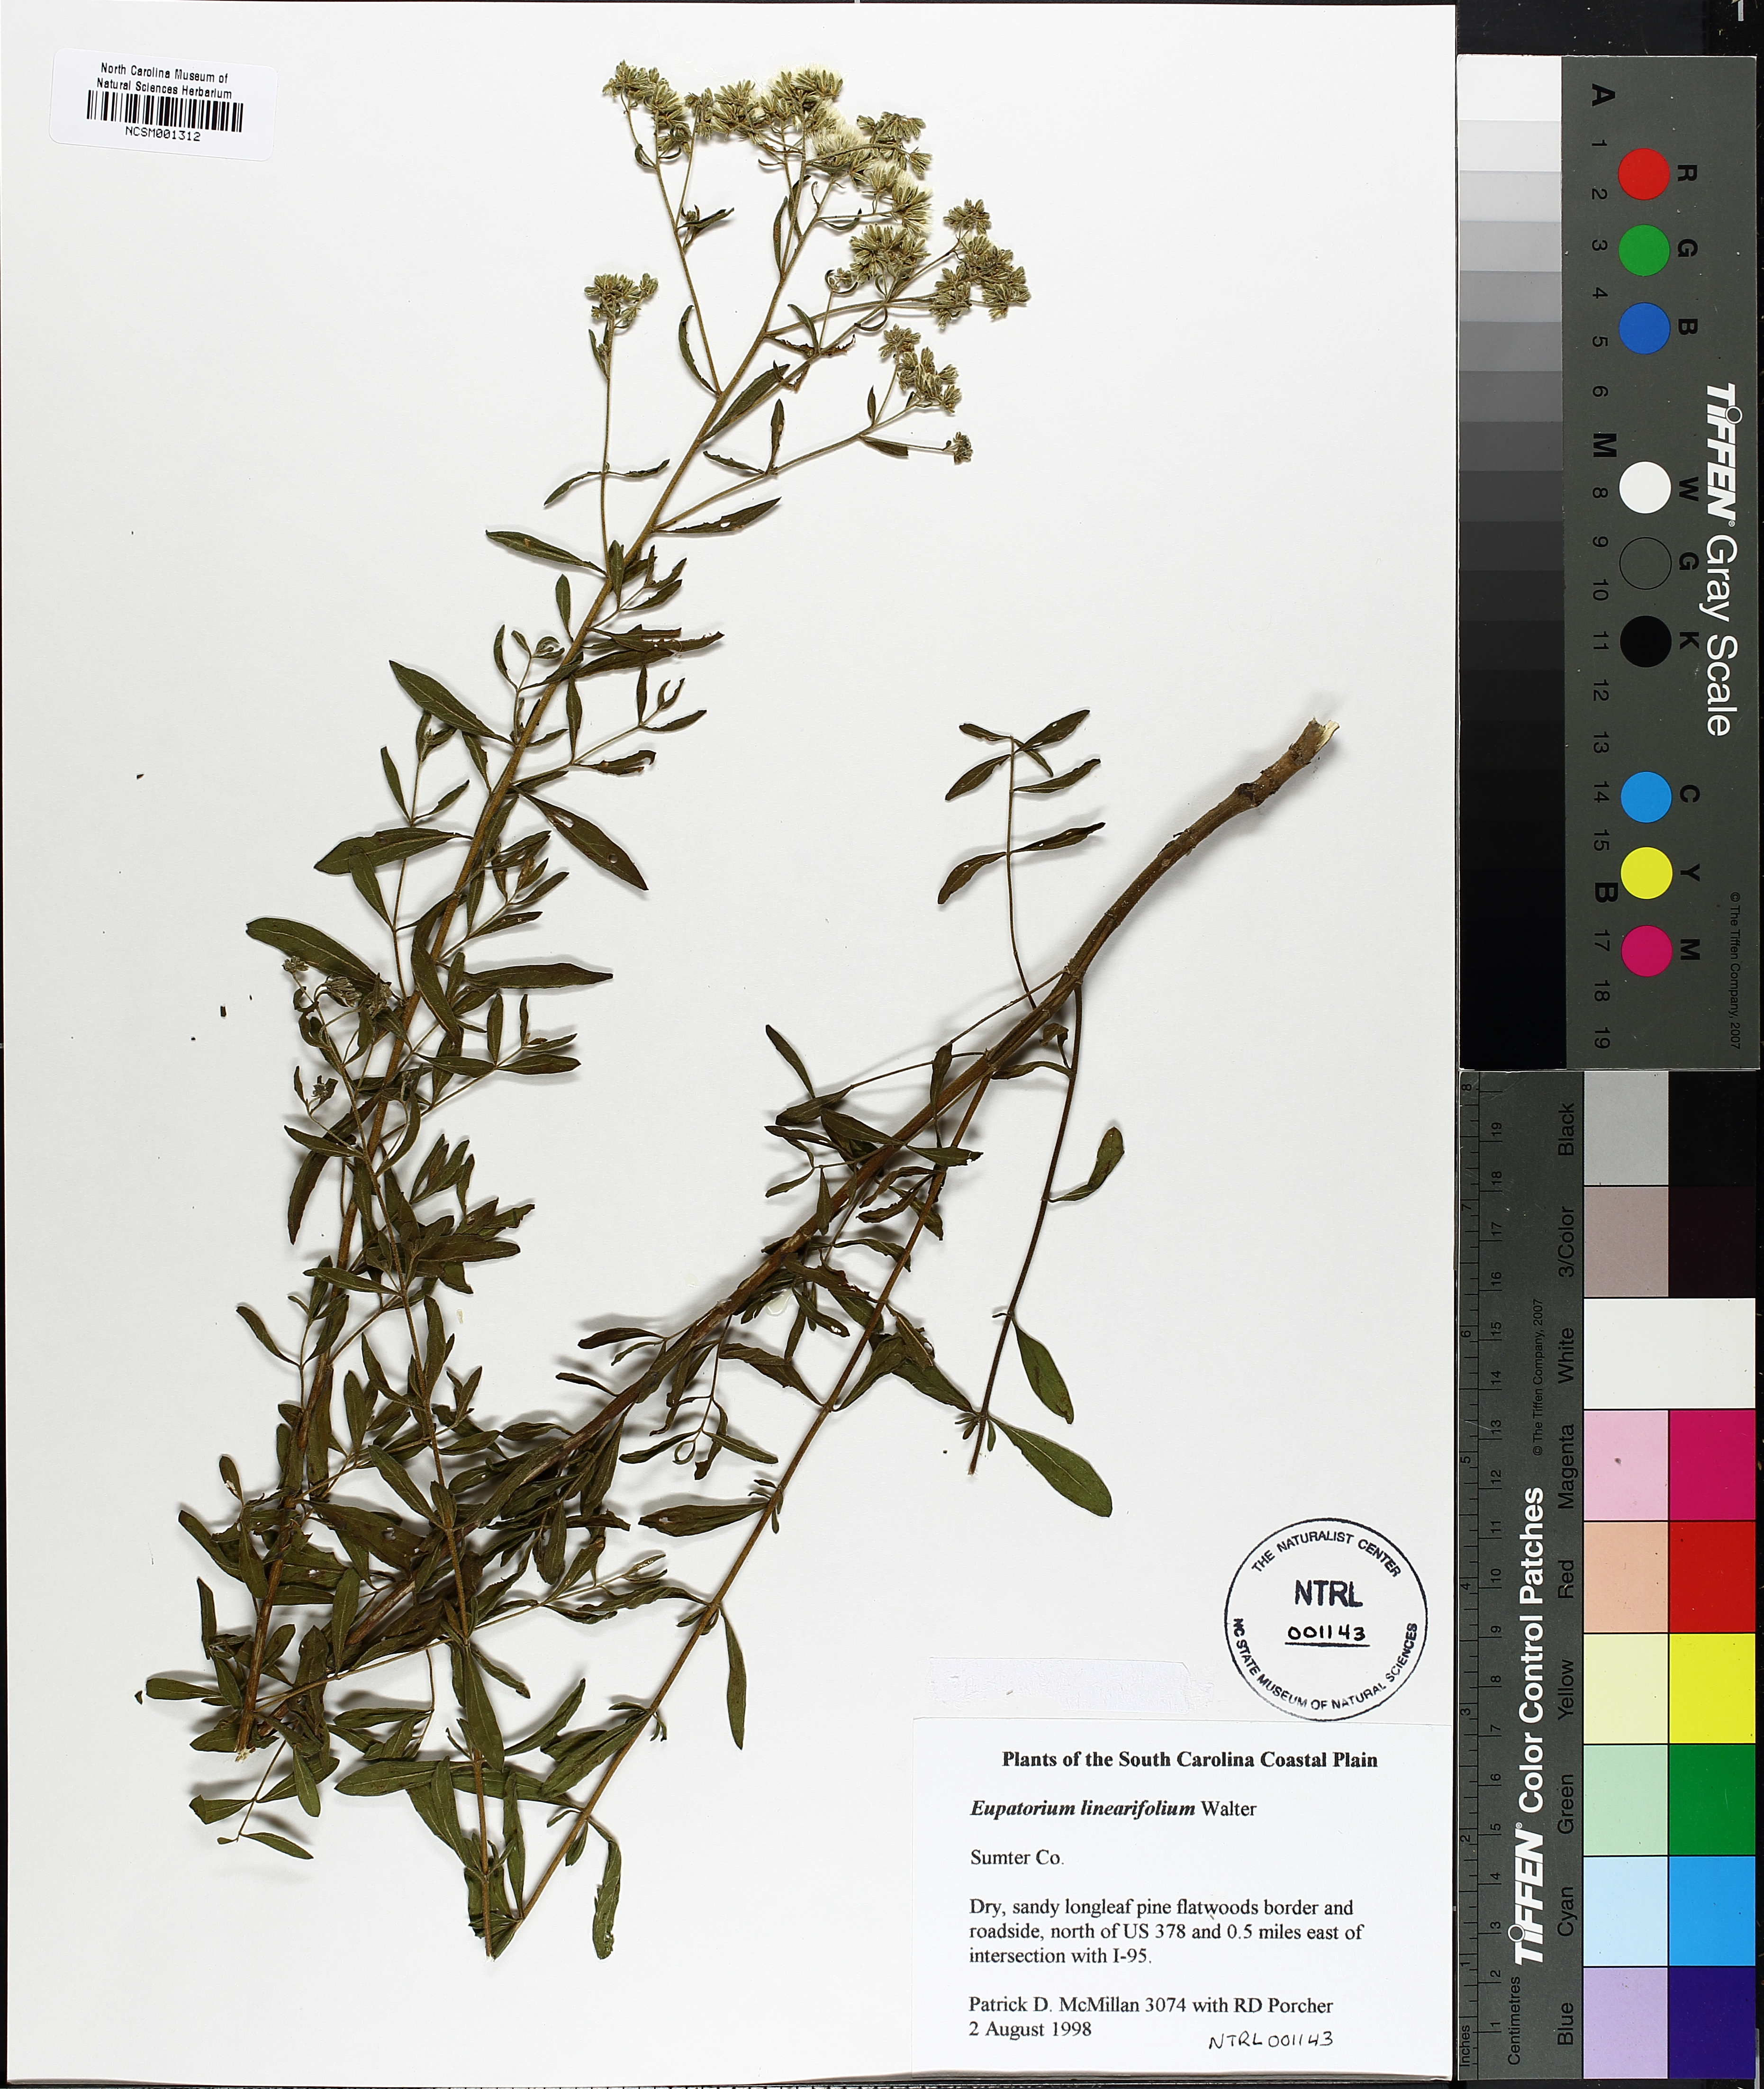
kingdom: Plantae
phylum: Tracheophyta
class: Magnoliopsida
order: Asterales
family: Asteraceae
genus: Eupatorium
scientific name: Eupatorium linearifolium
